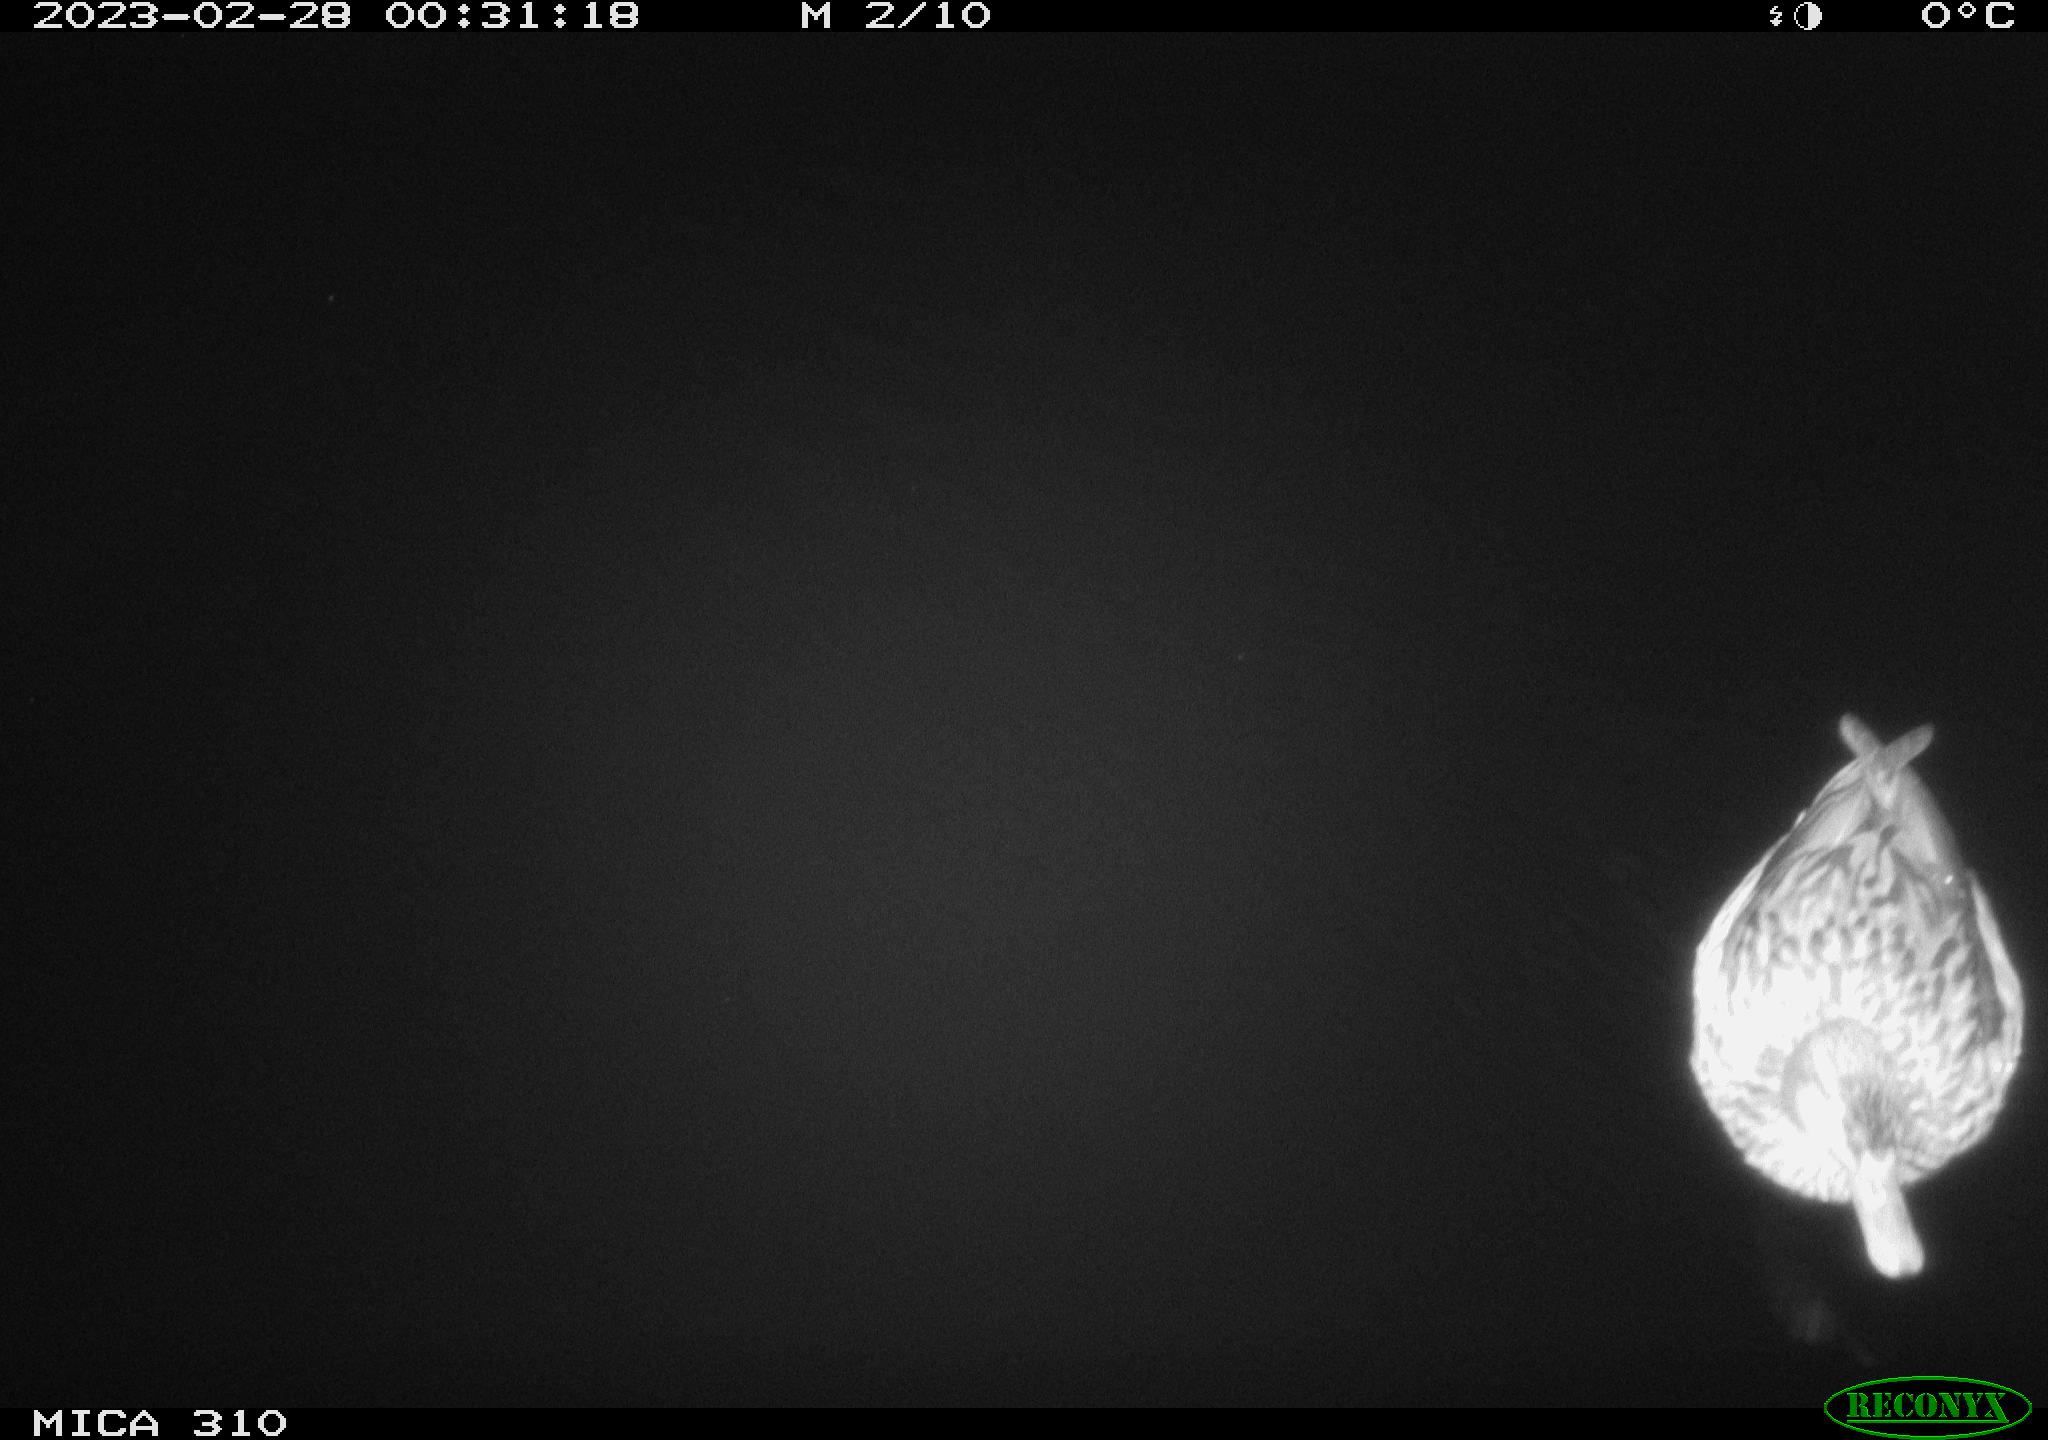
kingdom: Animalia
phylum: Chordata
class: Aves
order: Anseriformes
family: Anatidae
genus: Anas
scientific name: Anas
